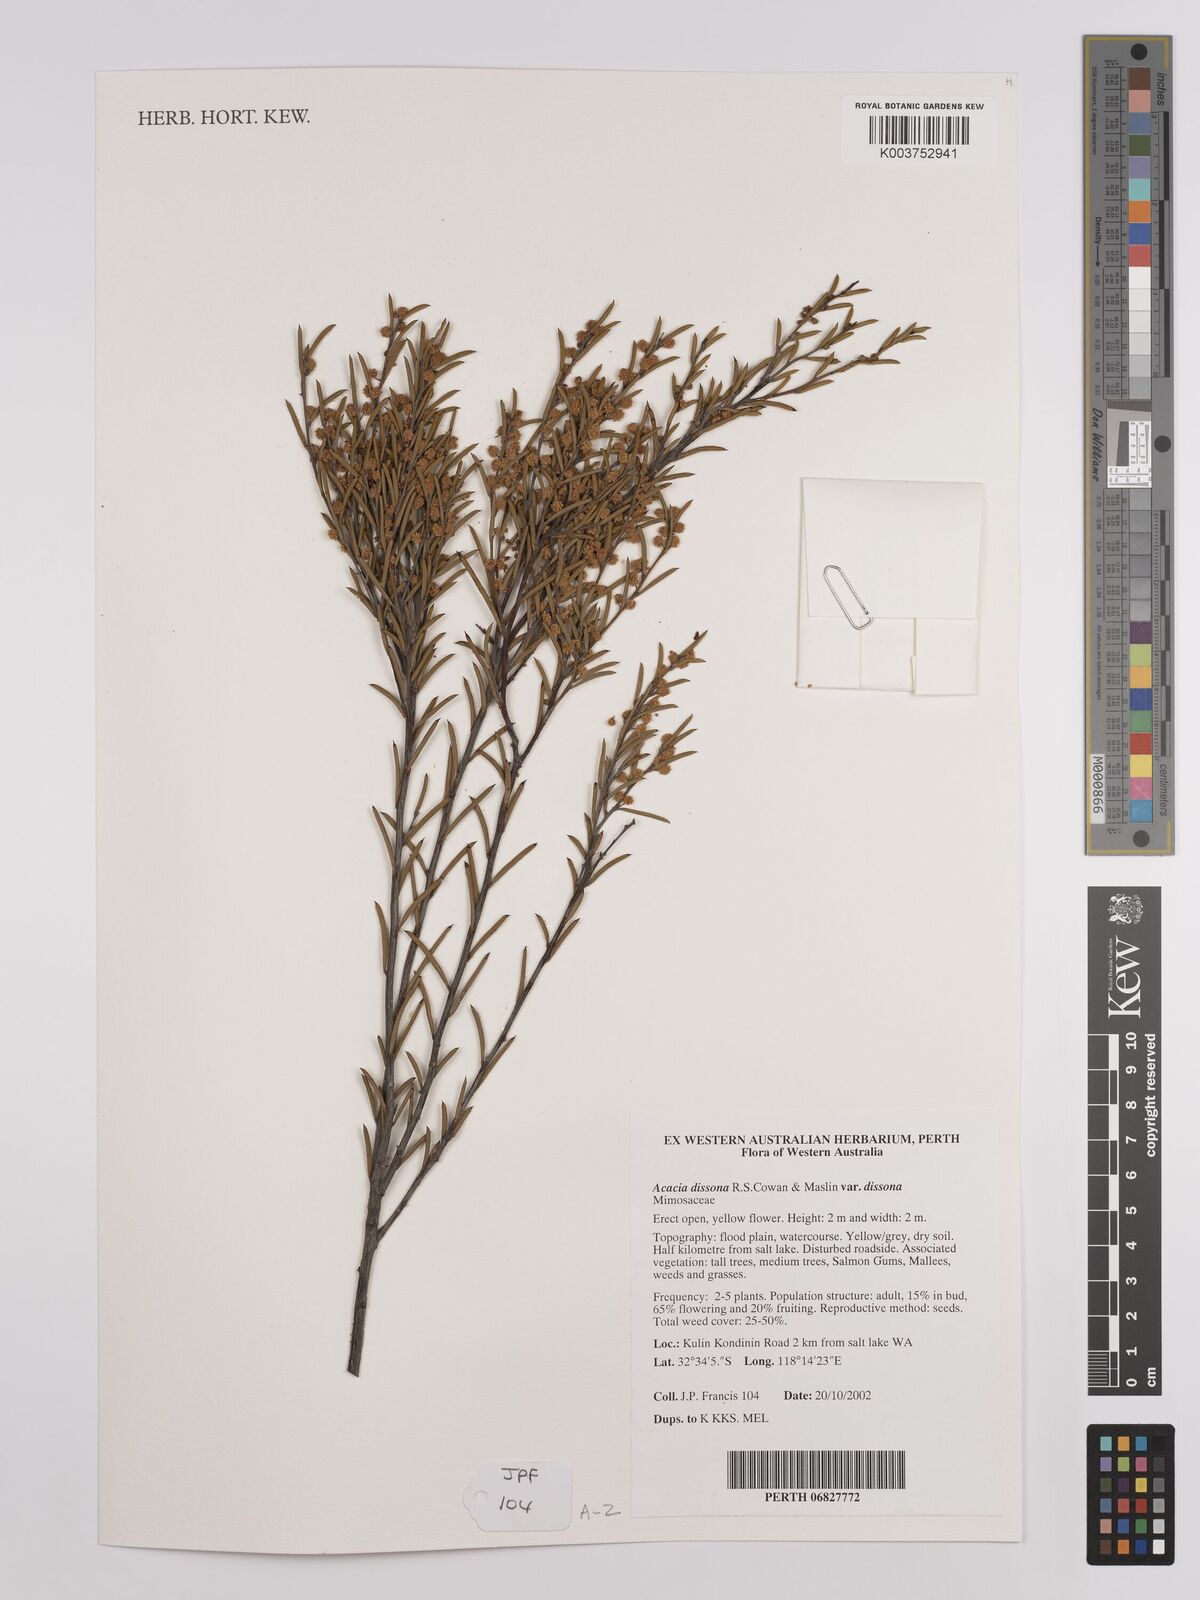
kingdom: Plantae
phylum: Tracheophyta
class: Magnoliopsida
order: Fabales
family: Fabaceae
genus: Acacia
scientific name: Acacia dissona
